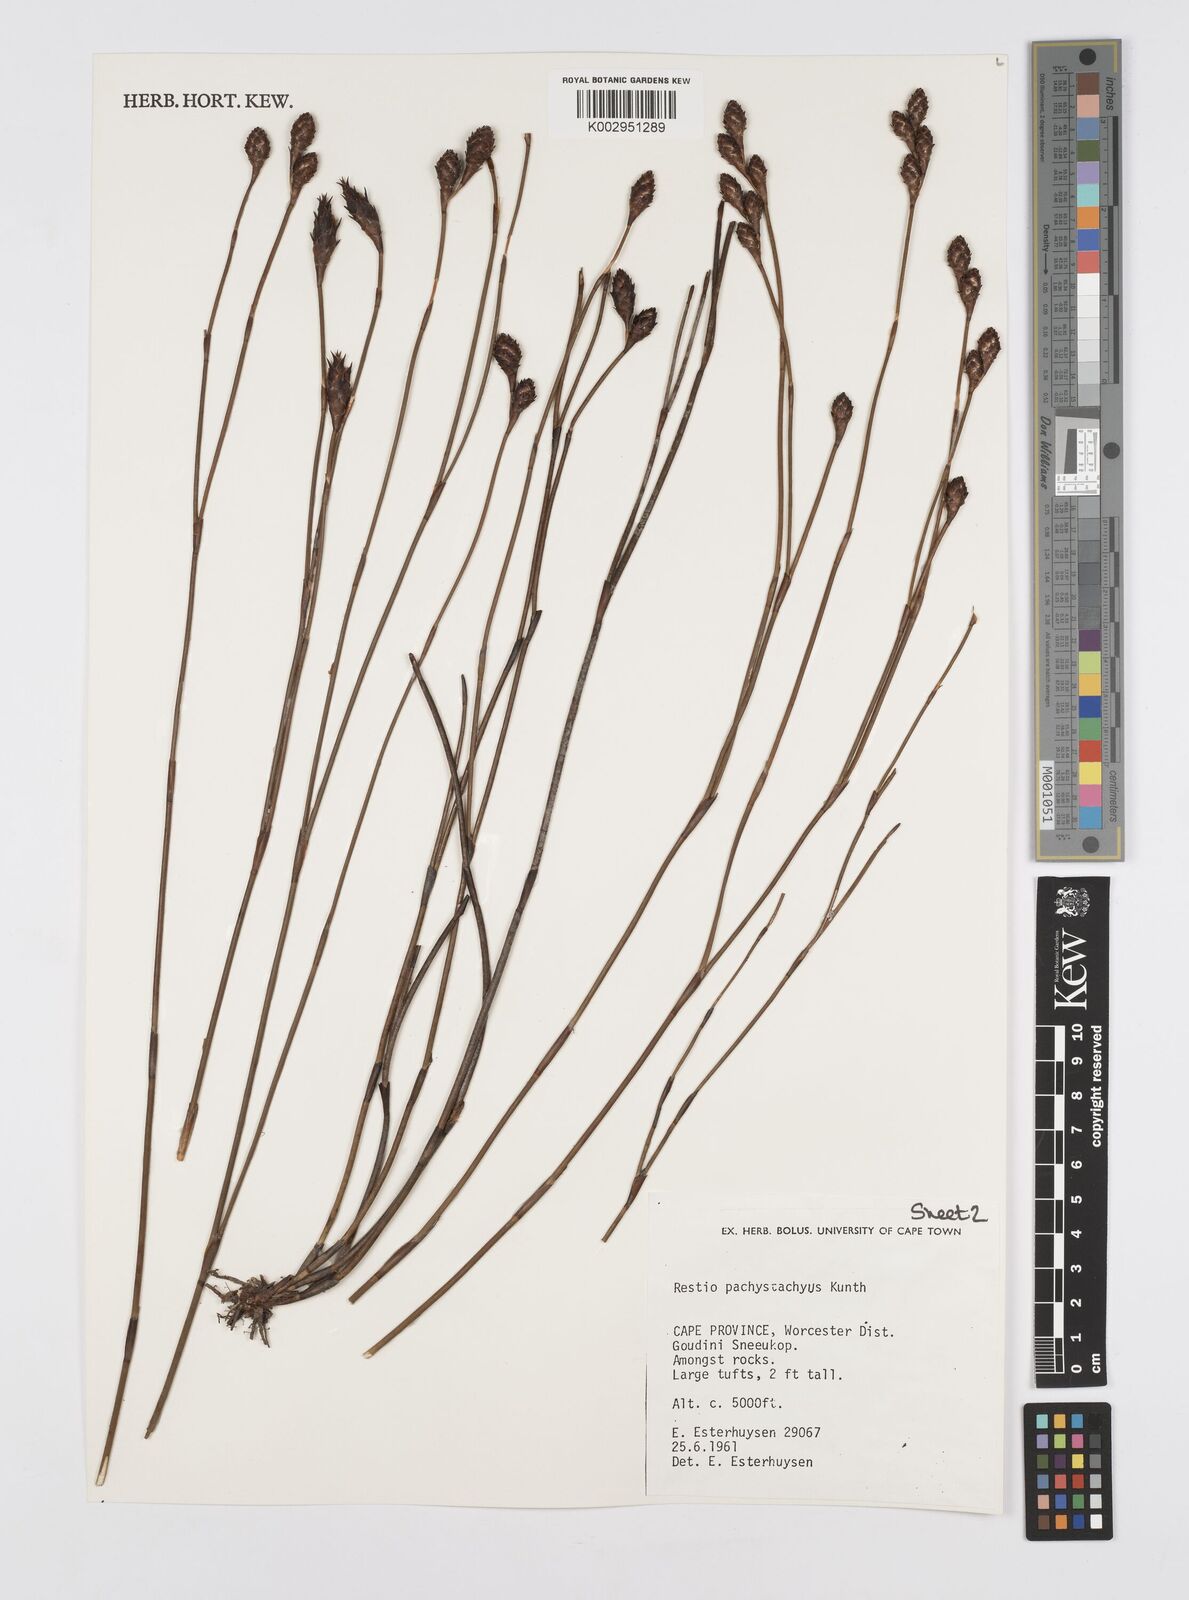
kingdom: Plantae
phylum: Tracheophyta
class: Liliopsida
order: Poales
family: Restionaceae
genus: Restio
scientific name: Restio pachystachyus
